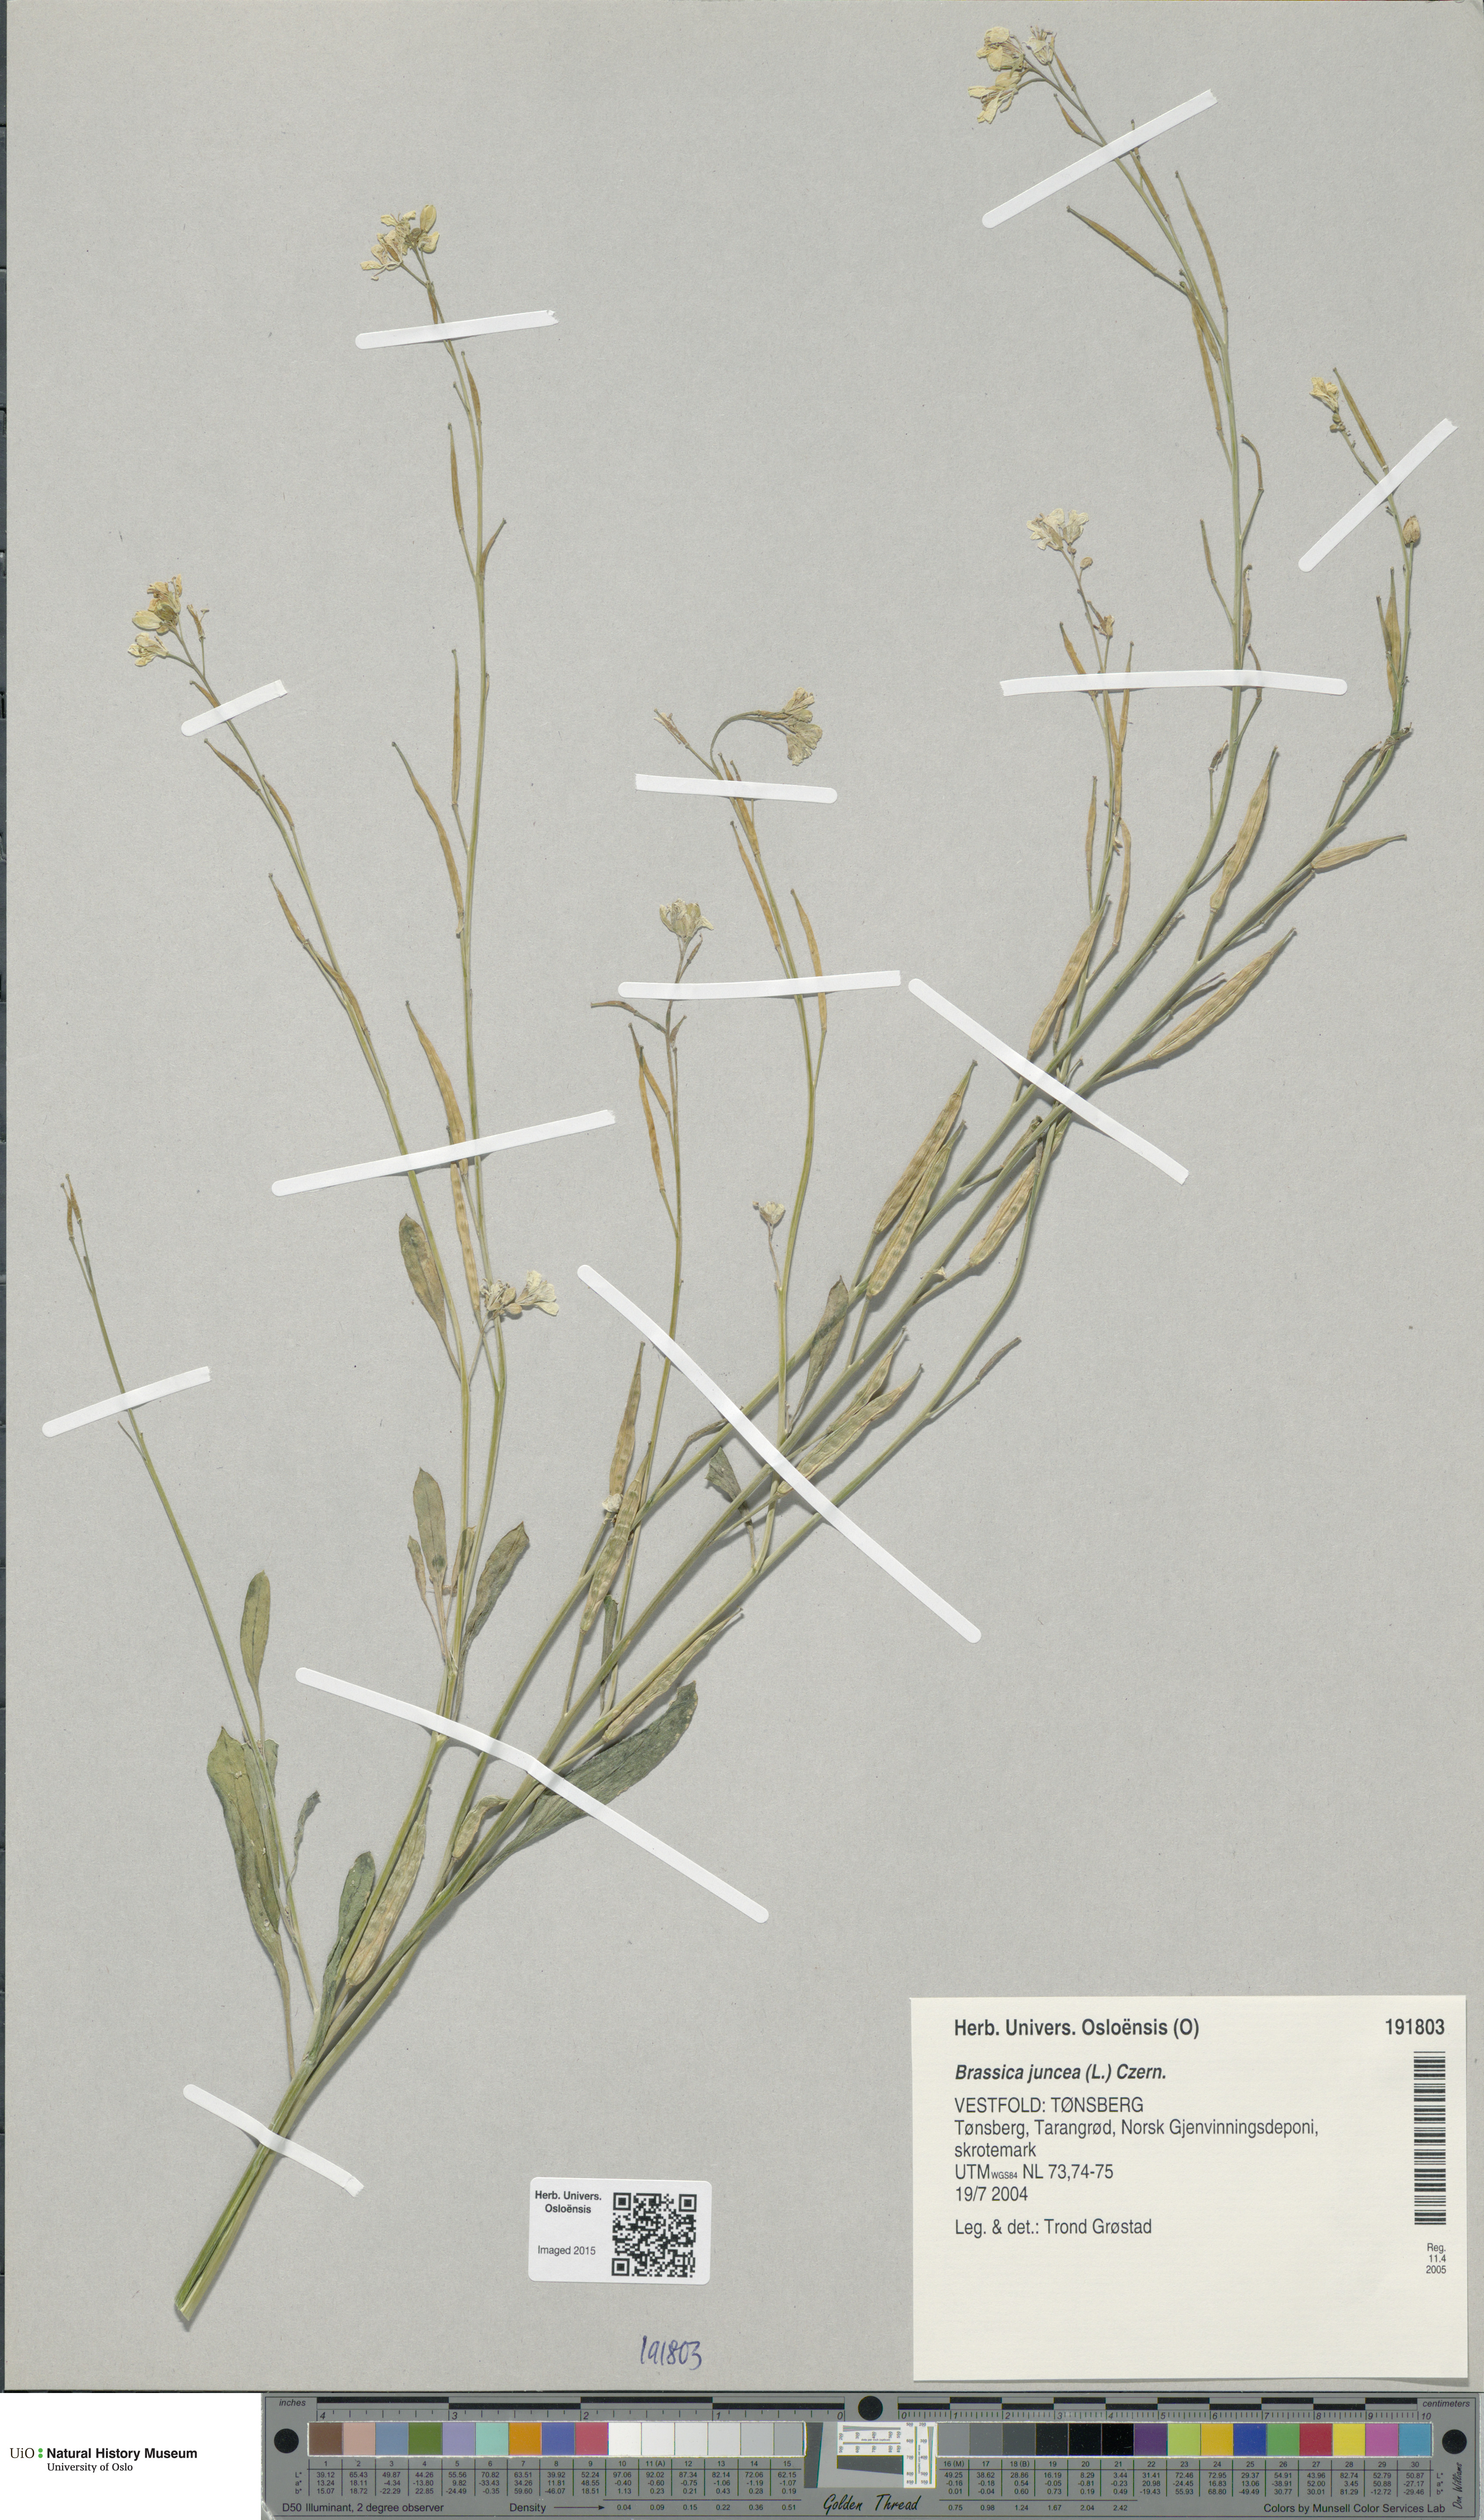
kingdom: Plantae
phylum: Tracheophyta
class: Magnoliopsida
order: Brassicales
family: Brassicaceae
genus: Brassica
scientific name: Brassica juncea
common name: Brown mustard
